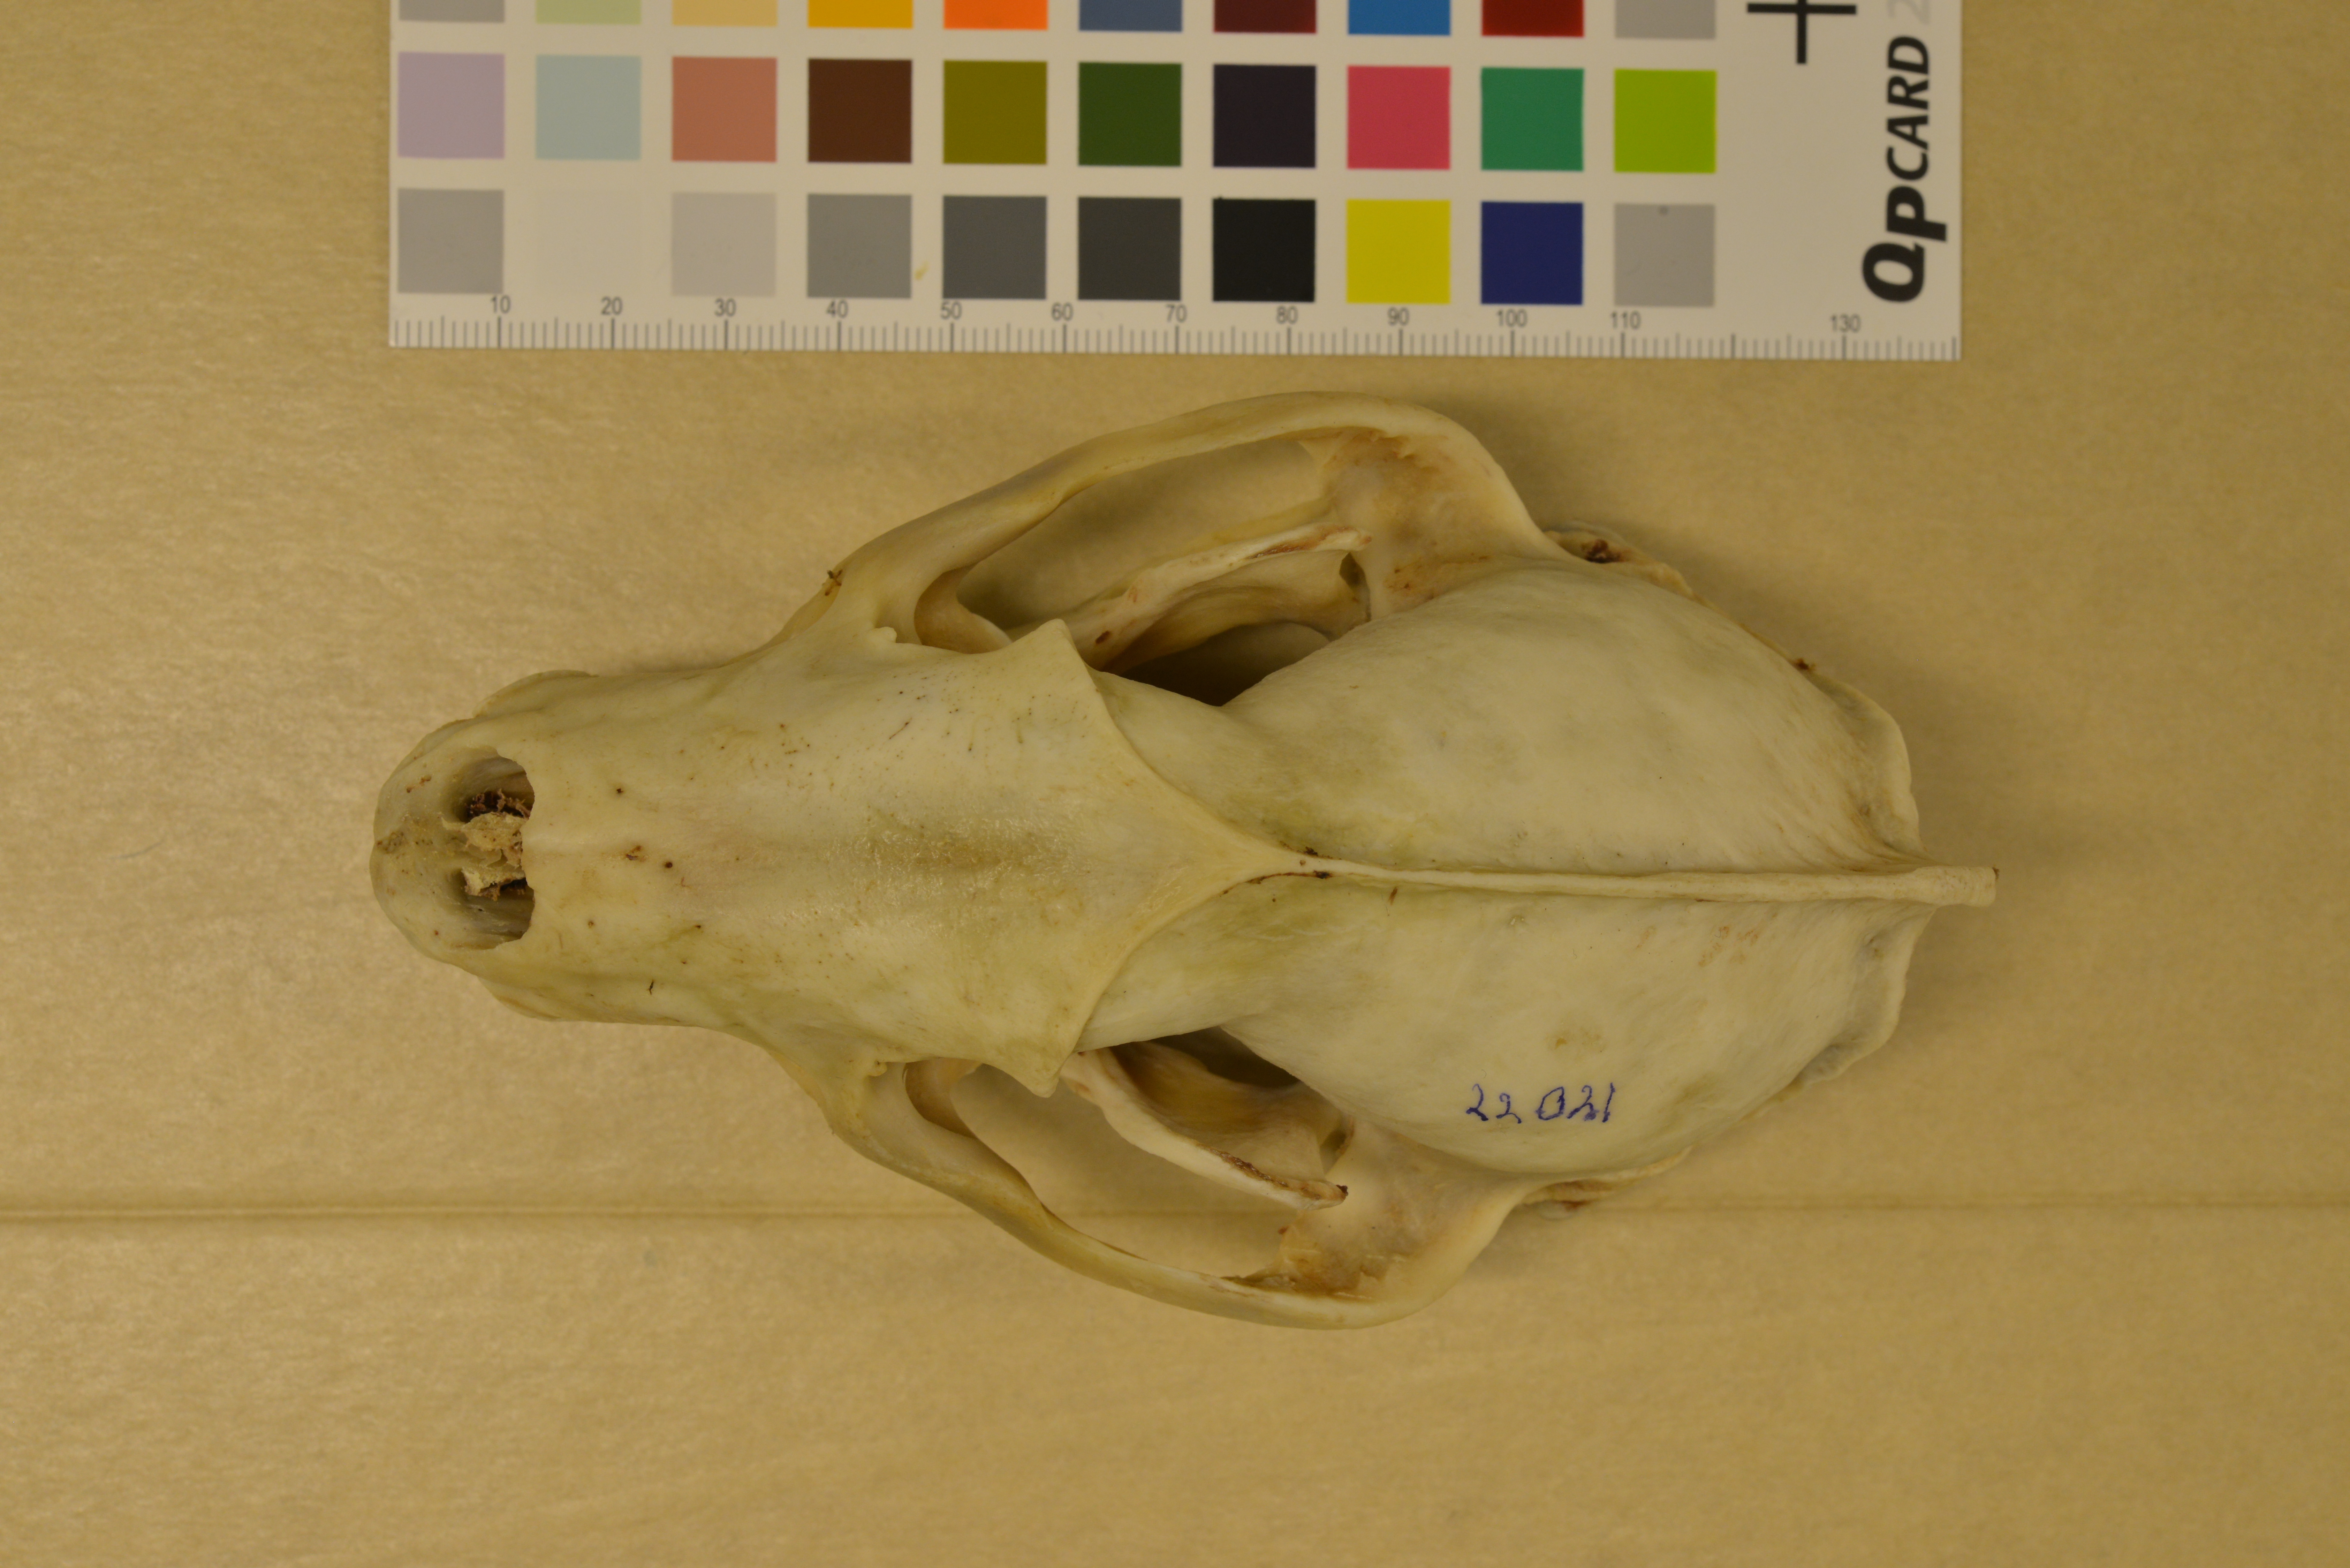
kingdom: Animalia
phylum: Chordata
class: Mammalia
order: Carnivora
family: Mustelidae
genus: Meles
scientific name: Meles meles
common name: Eurasian badger
